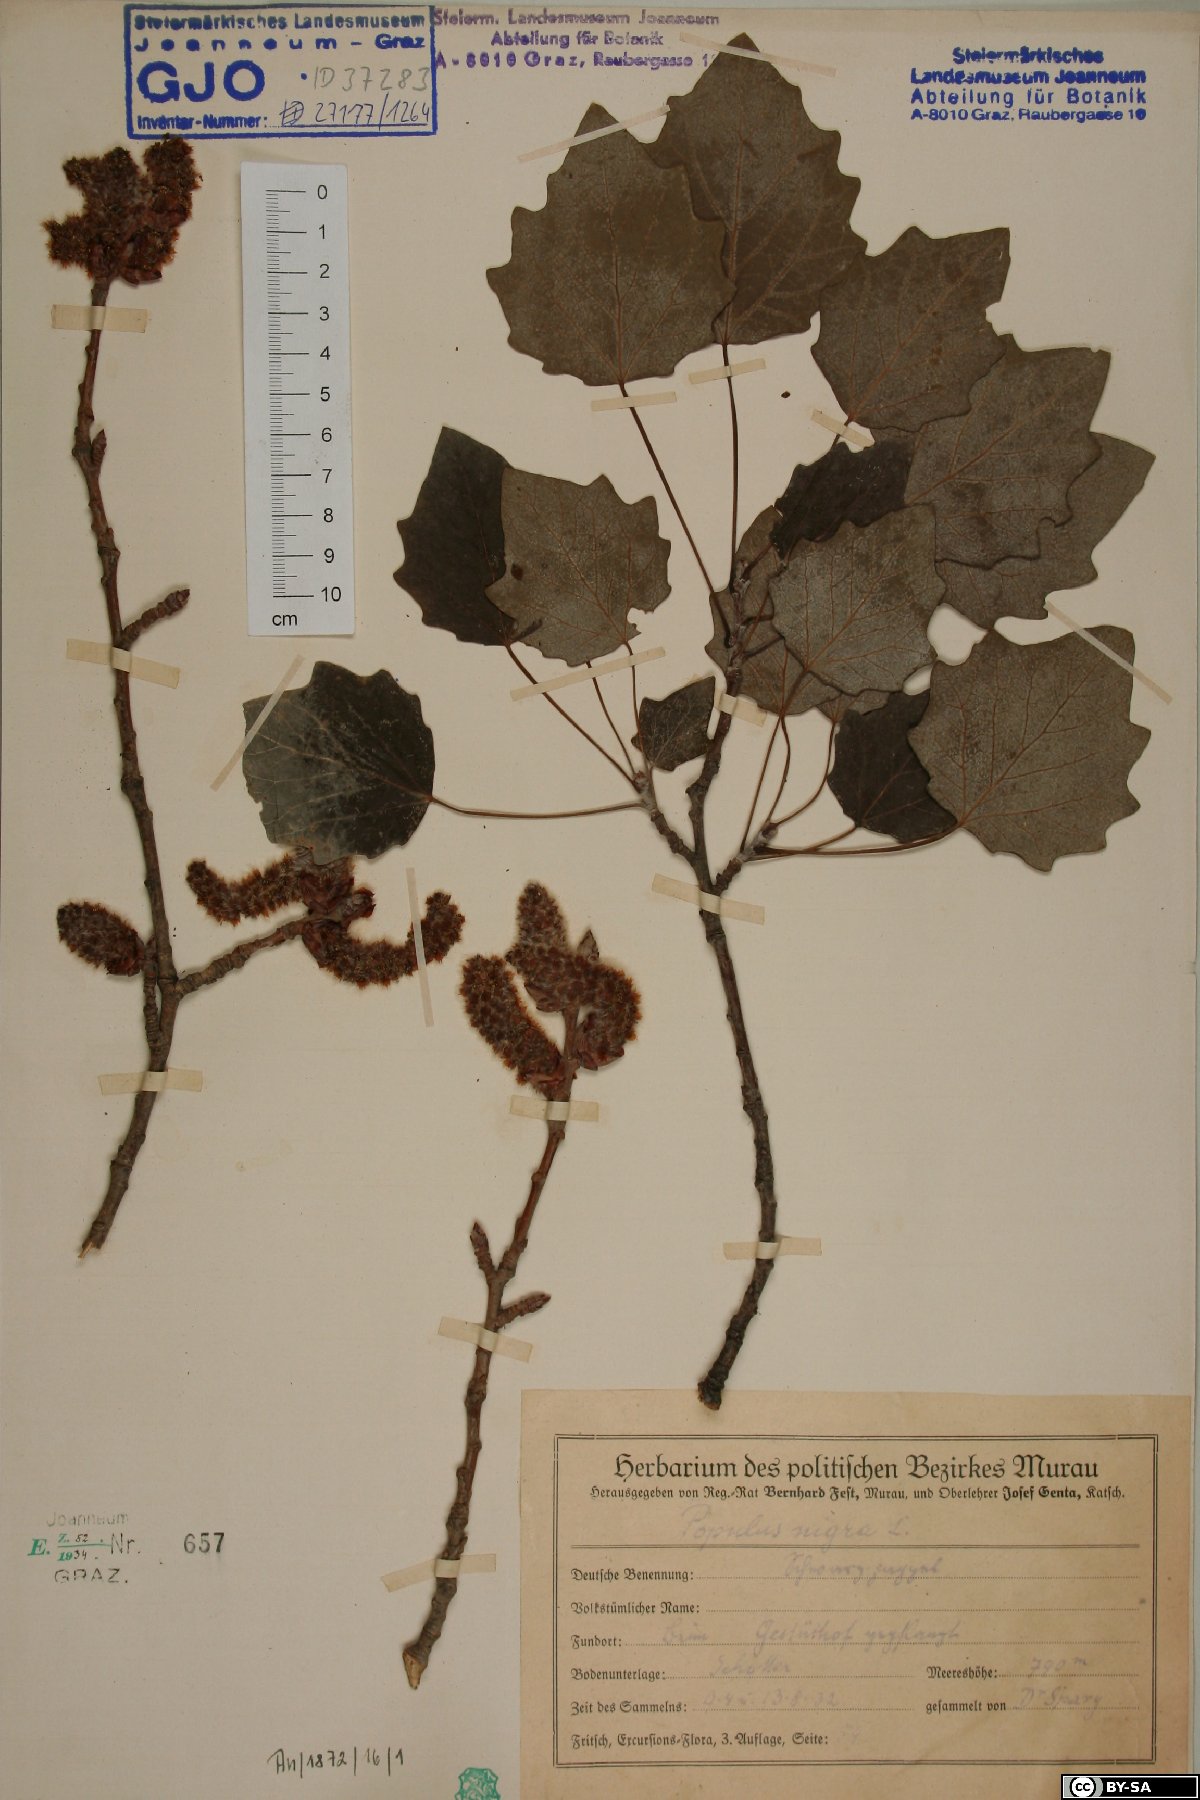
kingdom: Plantae
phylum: Tracheophyta
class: Magnoliopsida
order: Malpighiales
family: Salicaceae
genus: Populus
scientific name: Populus nigra
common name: Black poplar
